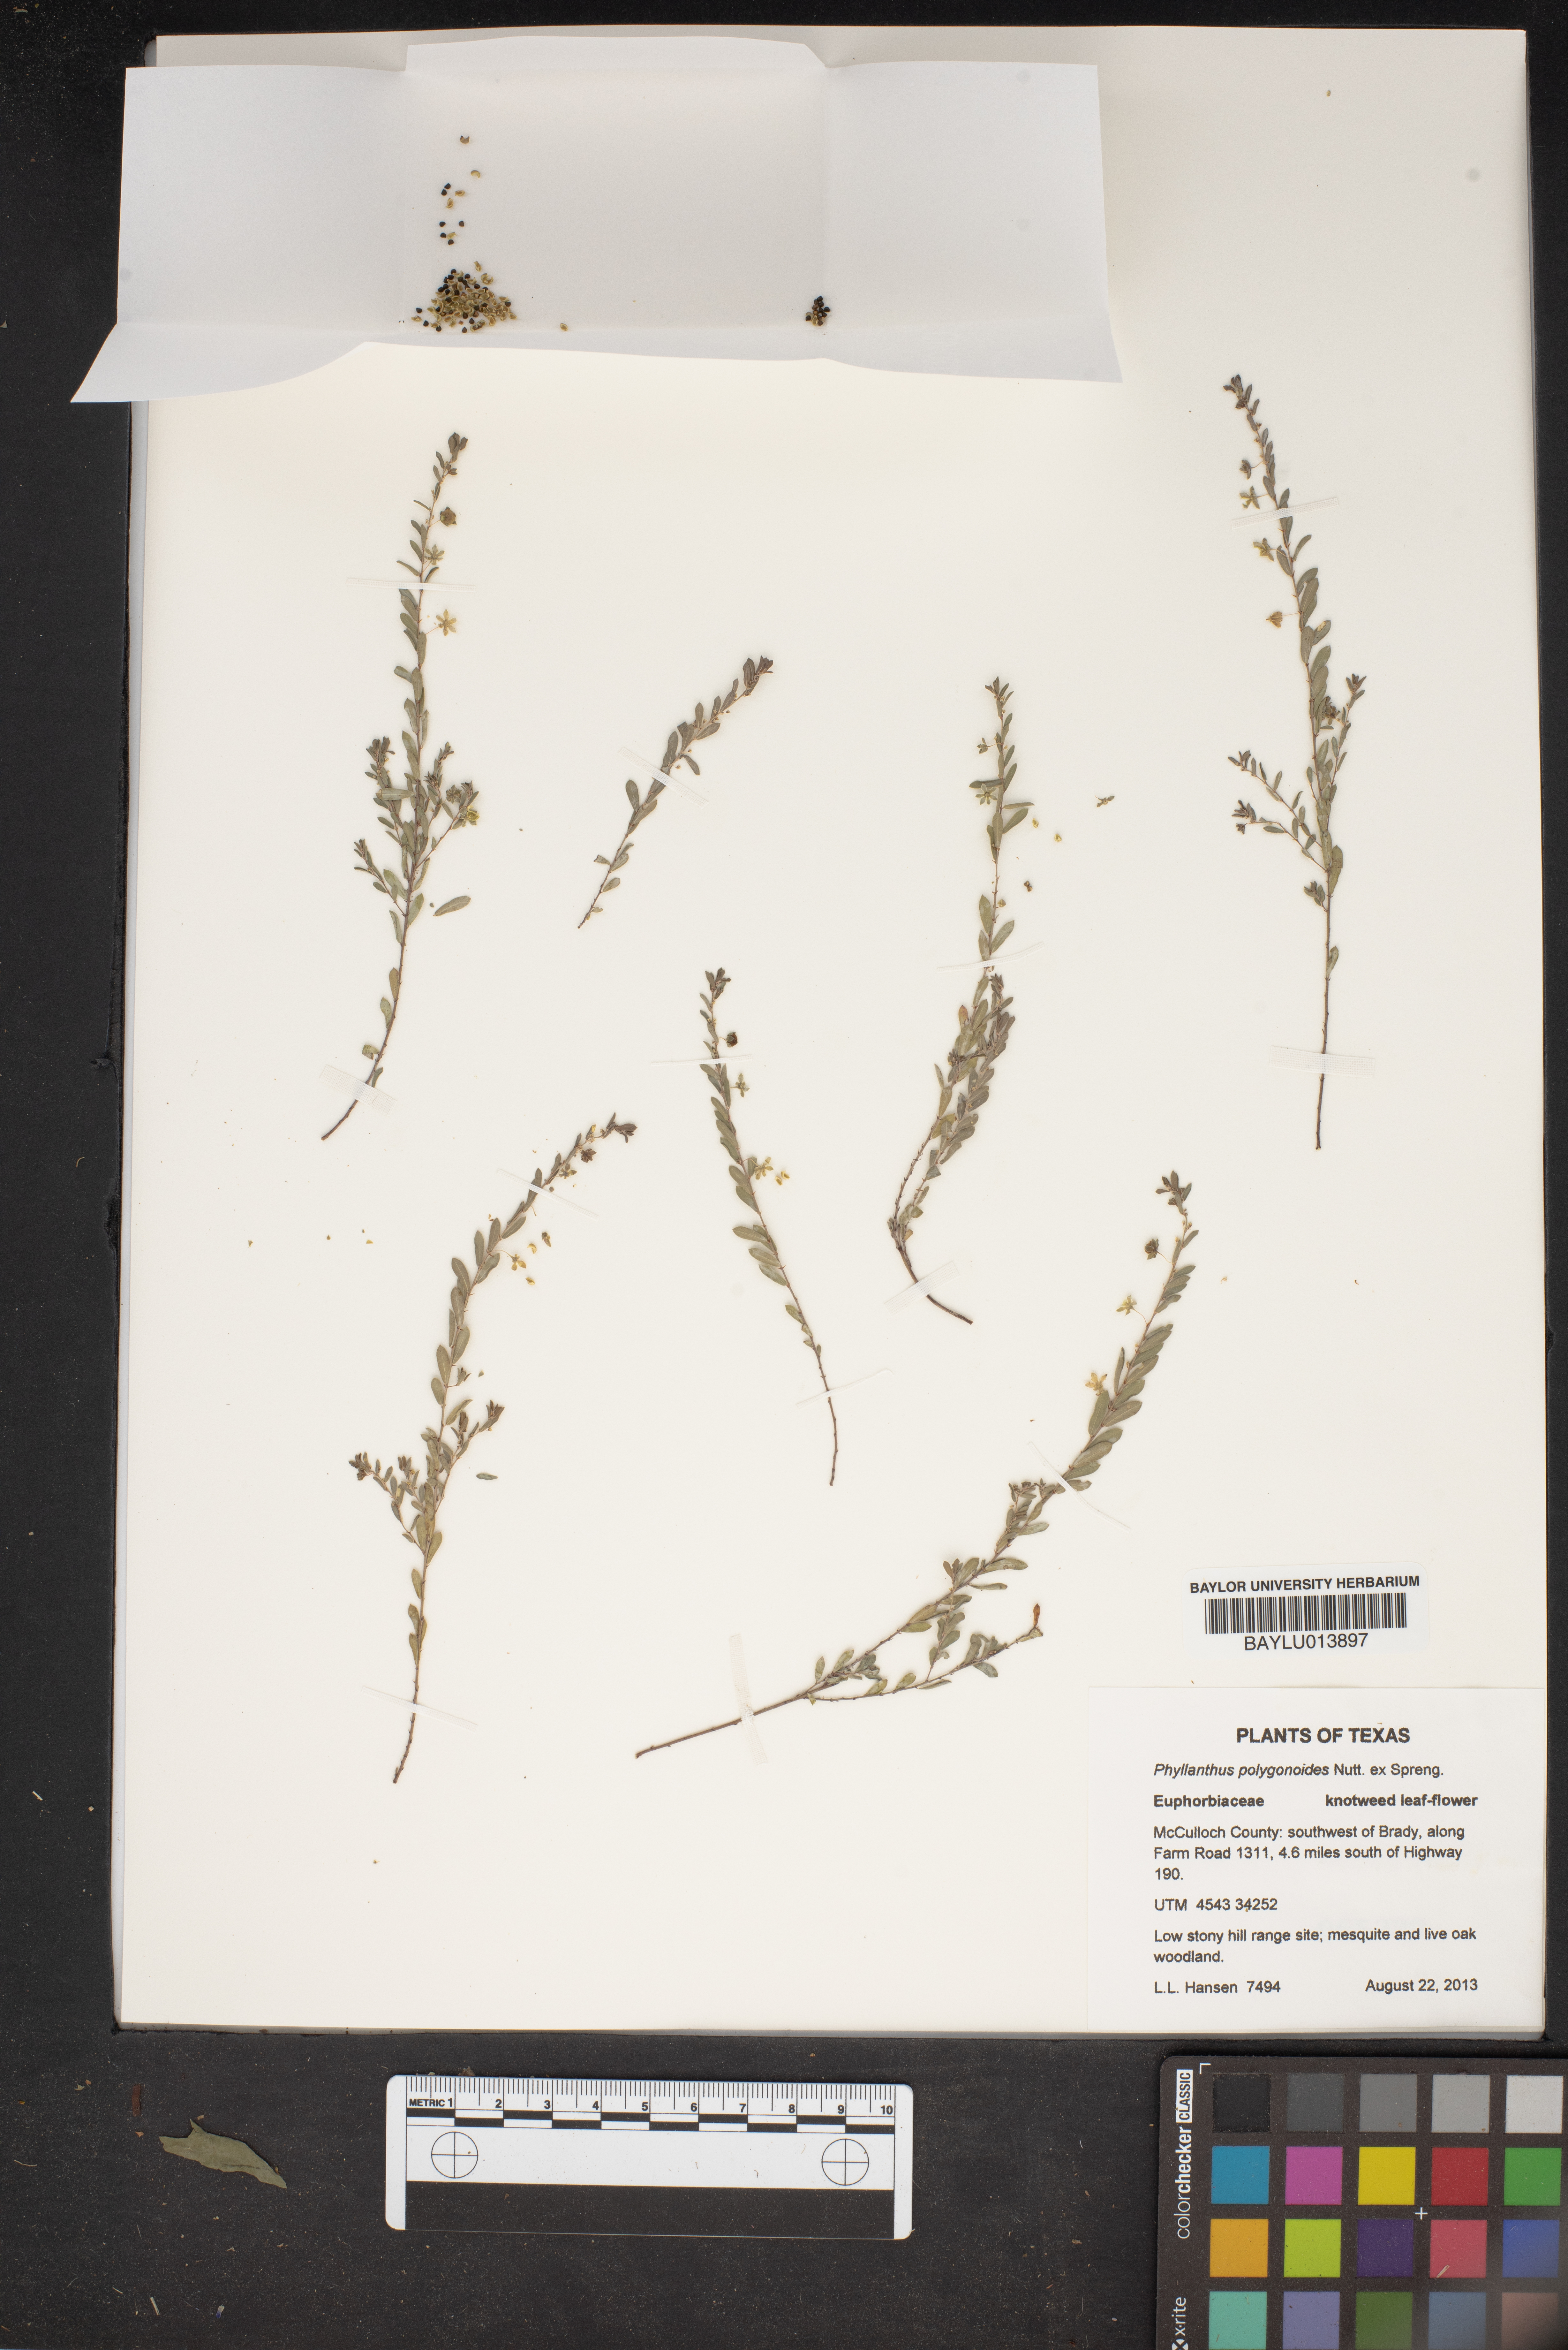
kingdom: Plantae
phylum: Tracheophyta
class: Magnoliopsida
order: Malpighiales
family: Phyllanthaceae
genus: Phyllanthus
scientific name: Phyllanthus polygonoides
